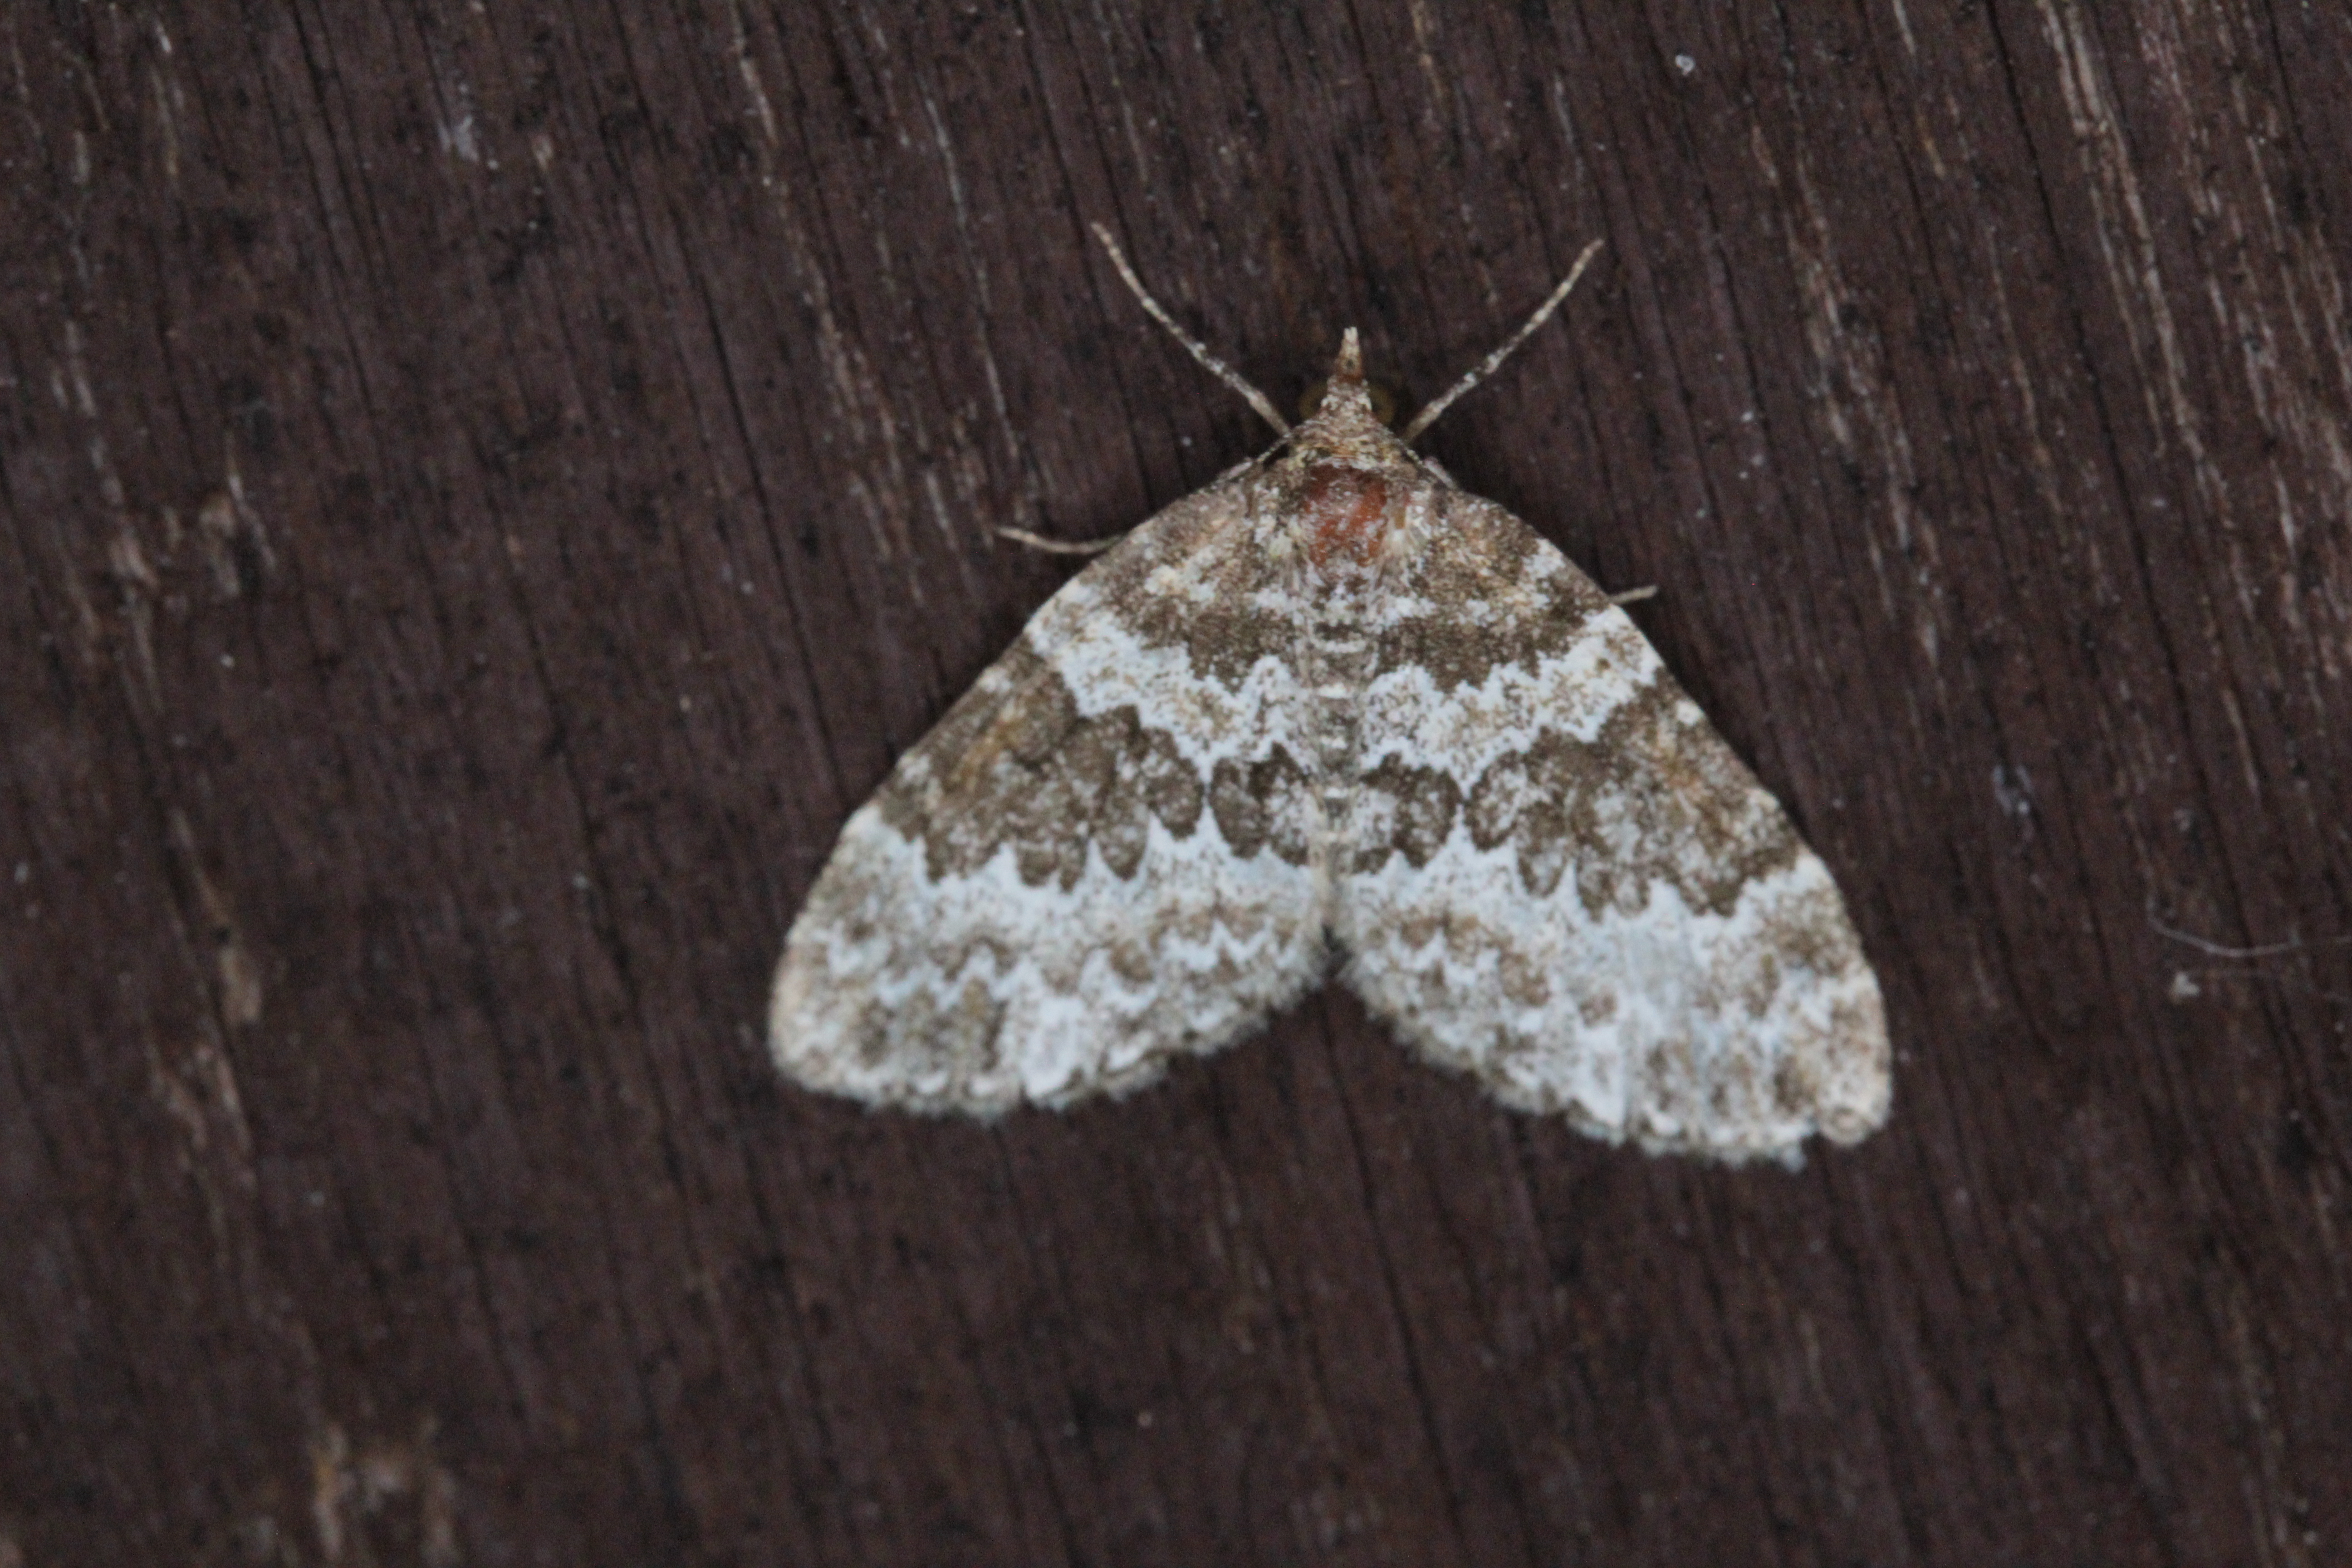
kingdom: Animalia
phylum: Arthropoda
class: Insecta
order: Lepidoptera
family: Geometridae
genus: Electrophaes
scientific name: Electrophaes corylata
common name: Broken-barred carpet
